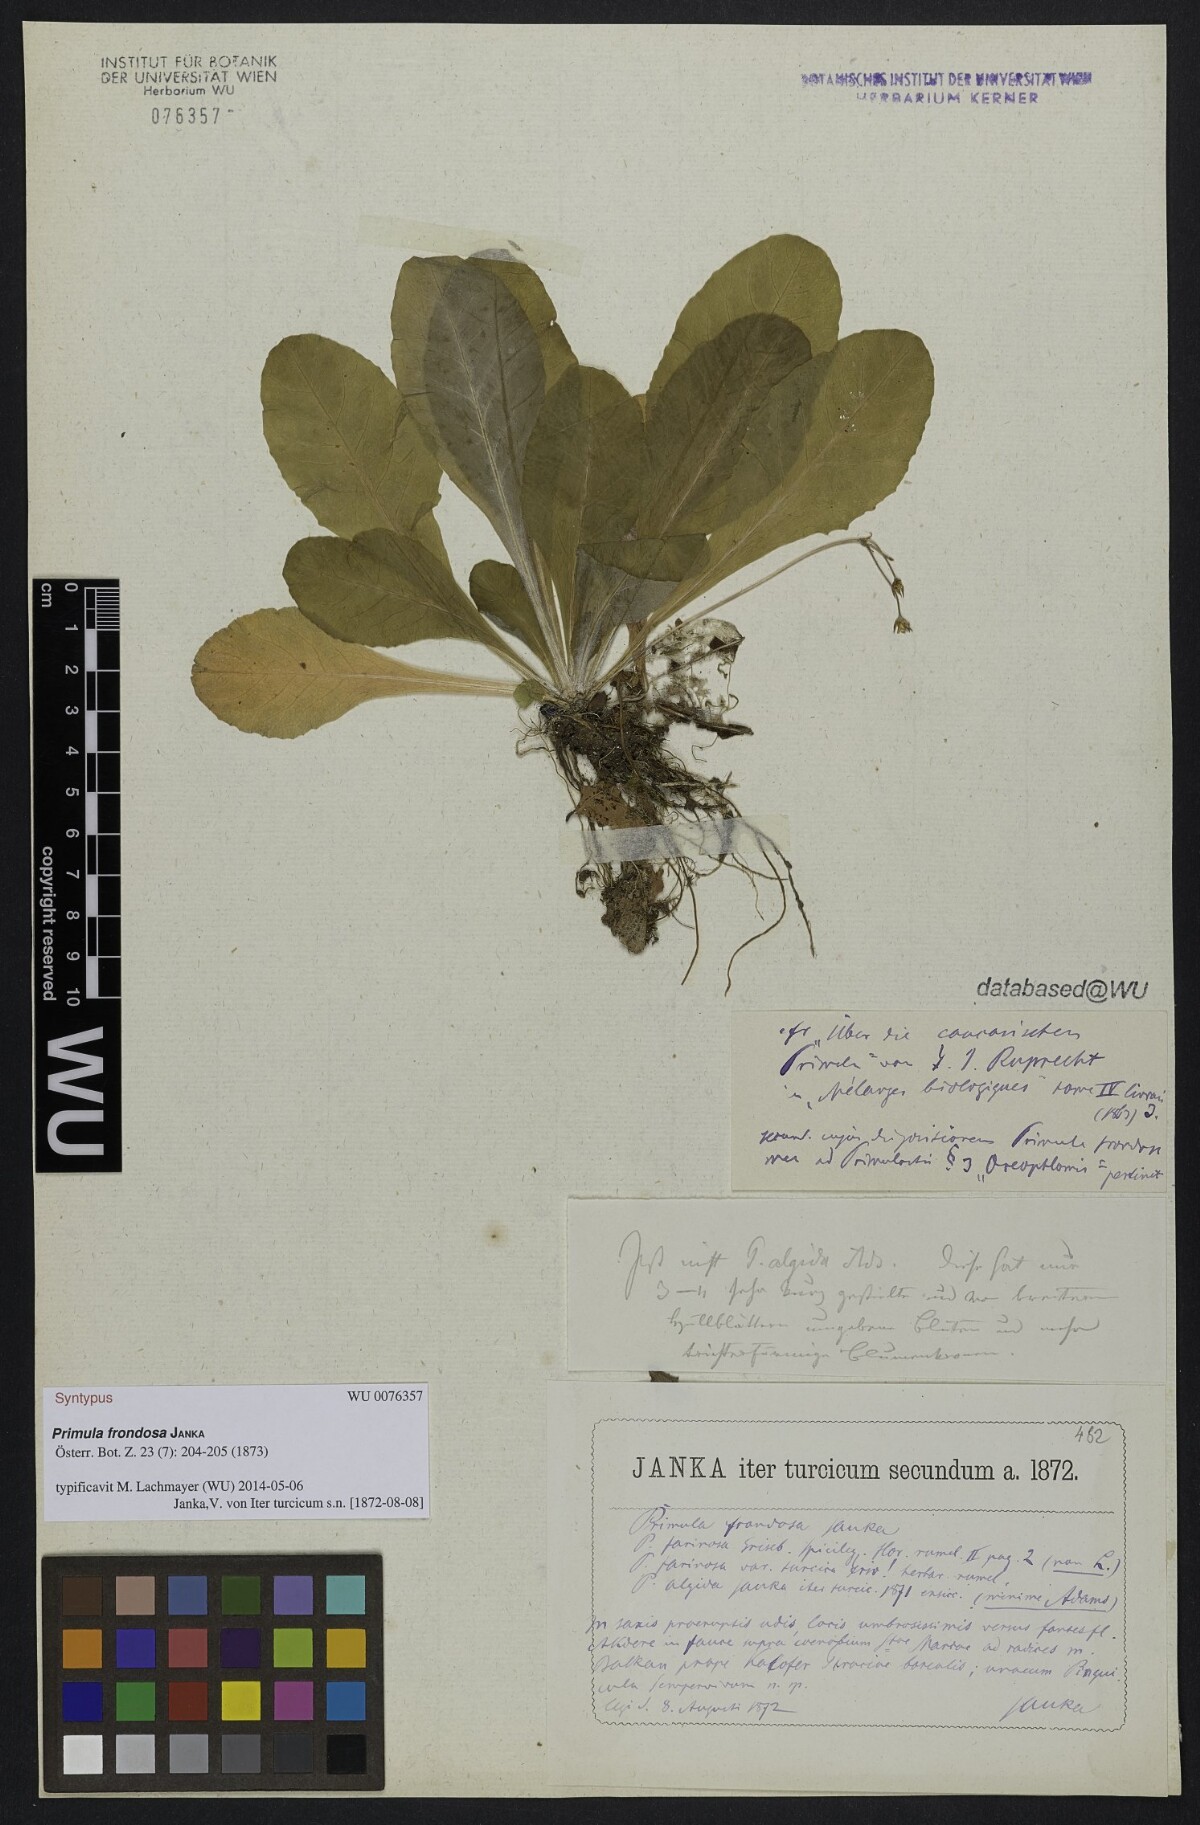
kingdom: Plantae
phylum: Tracheophyta
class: Magnoliopsida
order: Ericales
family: Primulaceae
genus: Primula
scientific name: Primula frondosa
